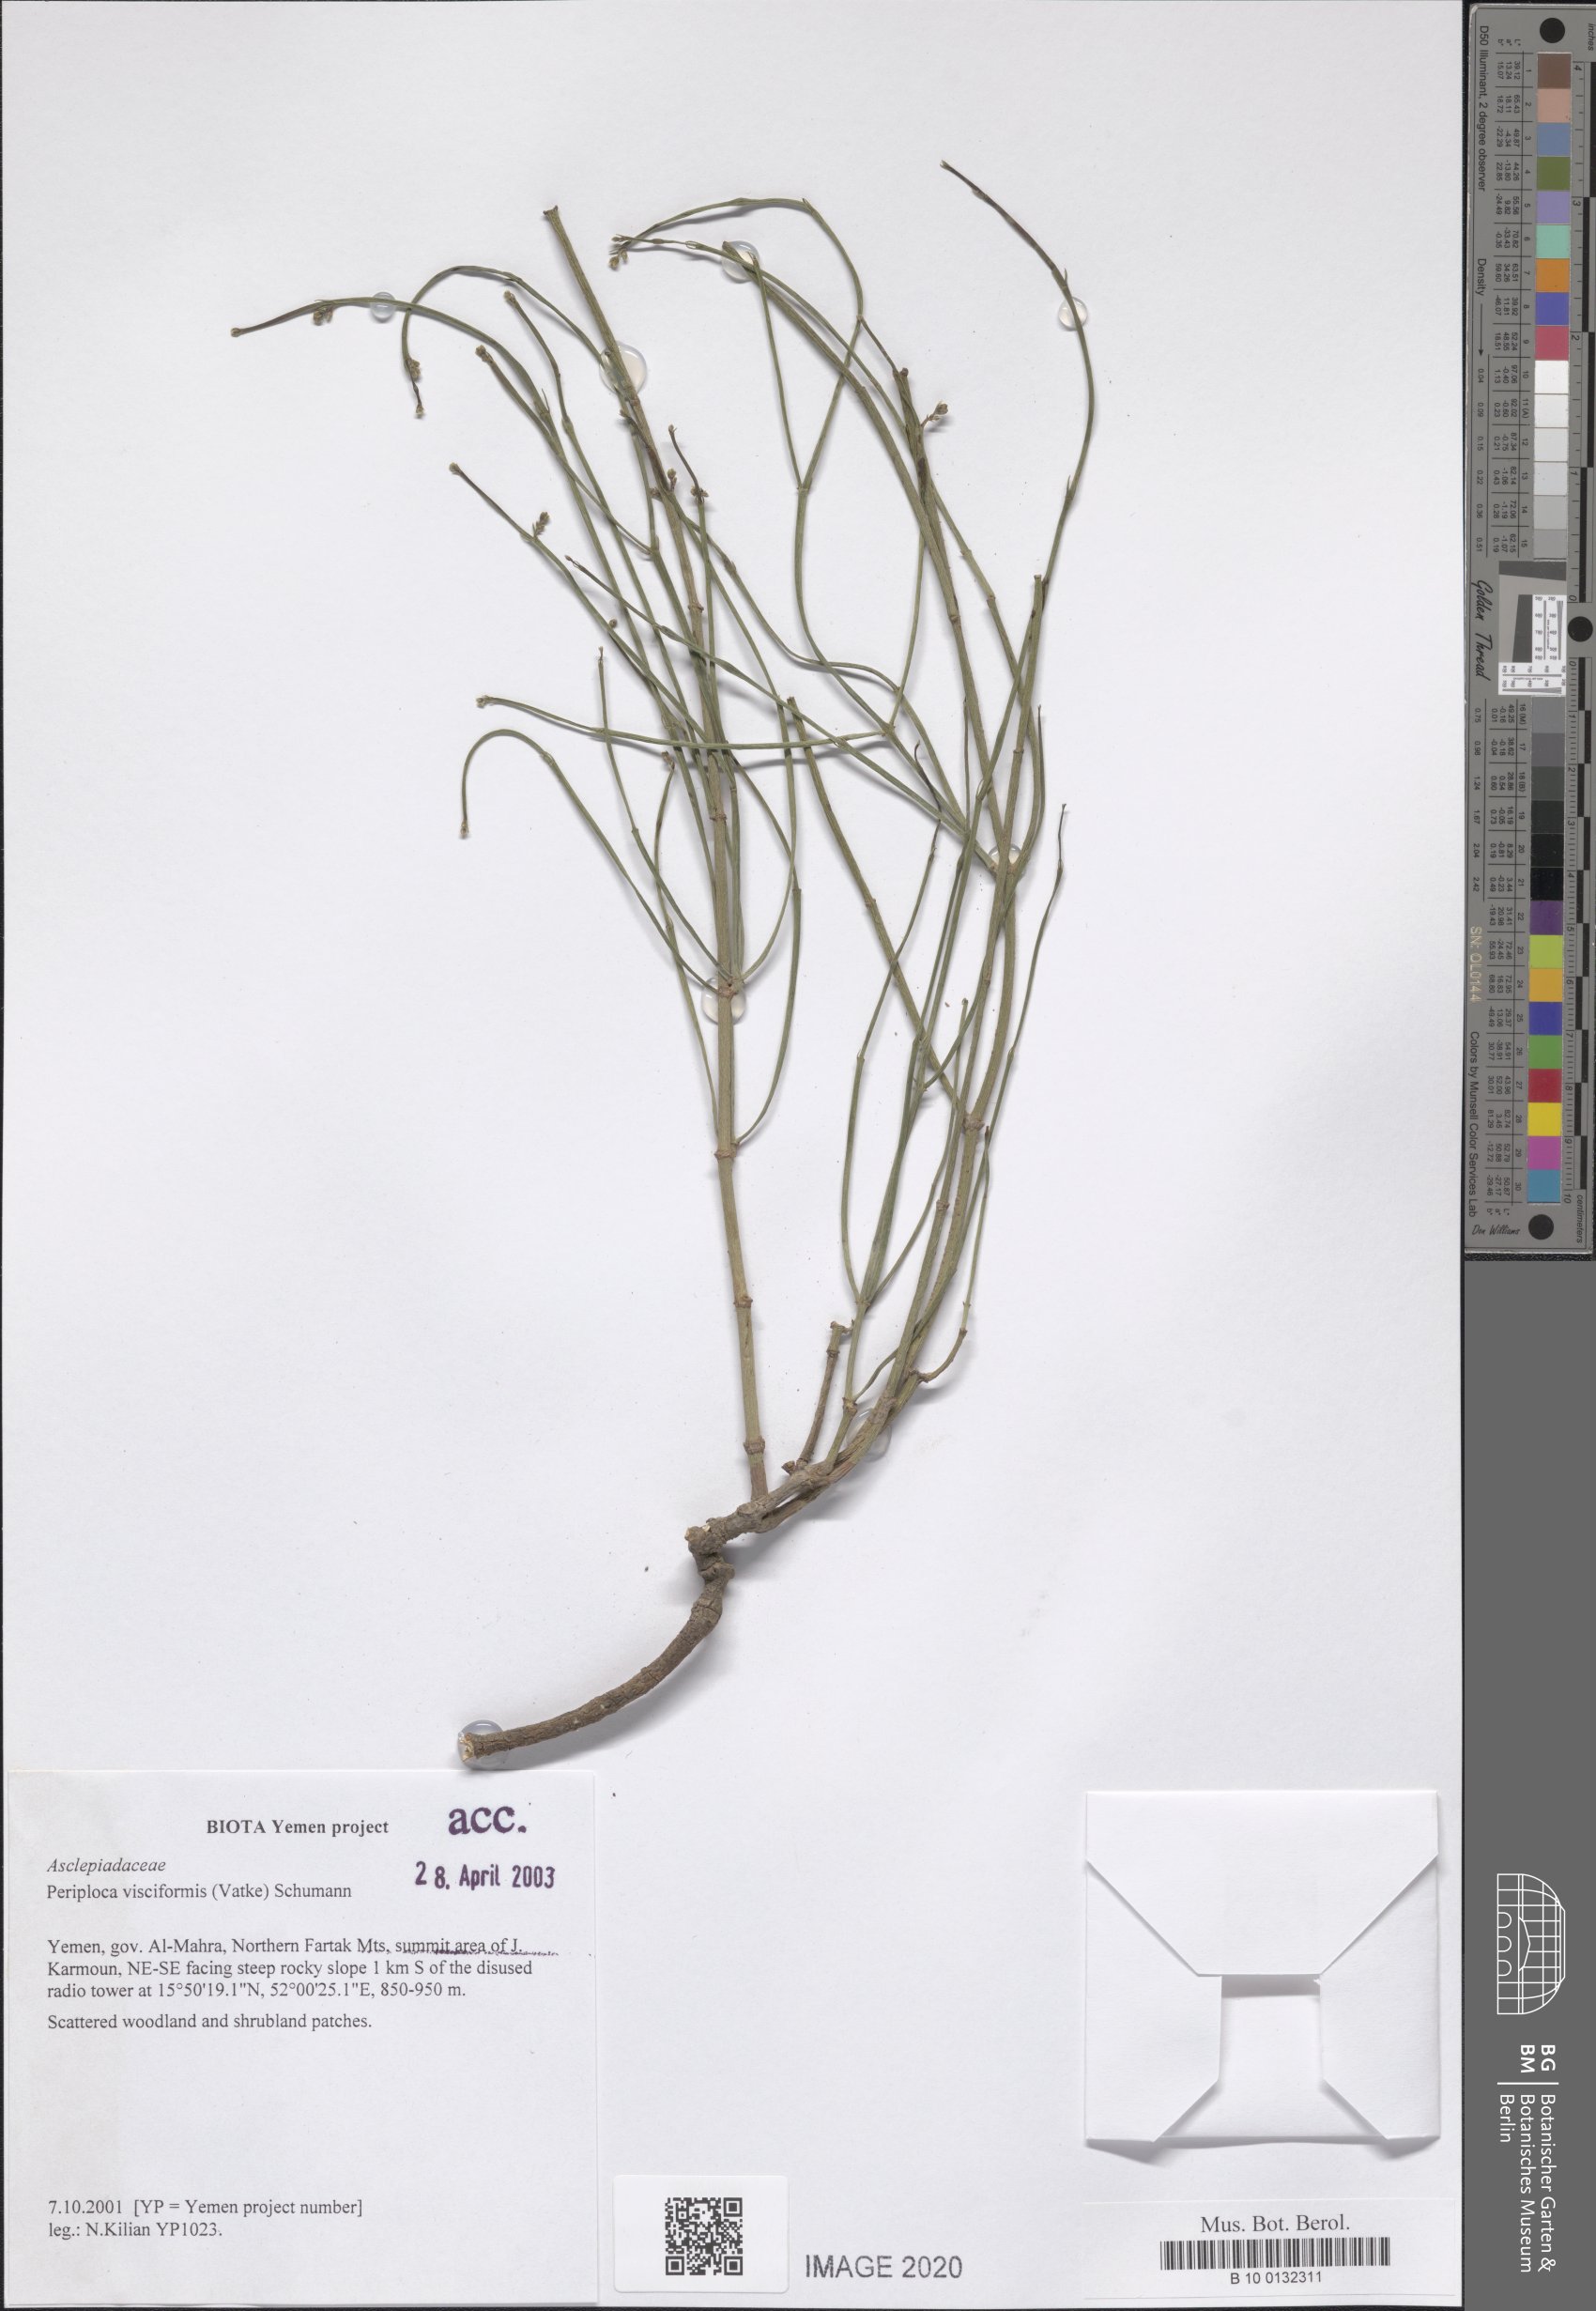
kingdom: Plantae
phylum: Tracheophyta
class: Magnoliopsida
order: Gentianales
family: Apocynaceae
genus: Periploca
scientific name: Periploca visciformis
